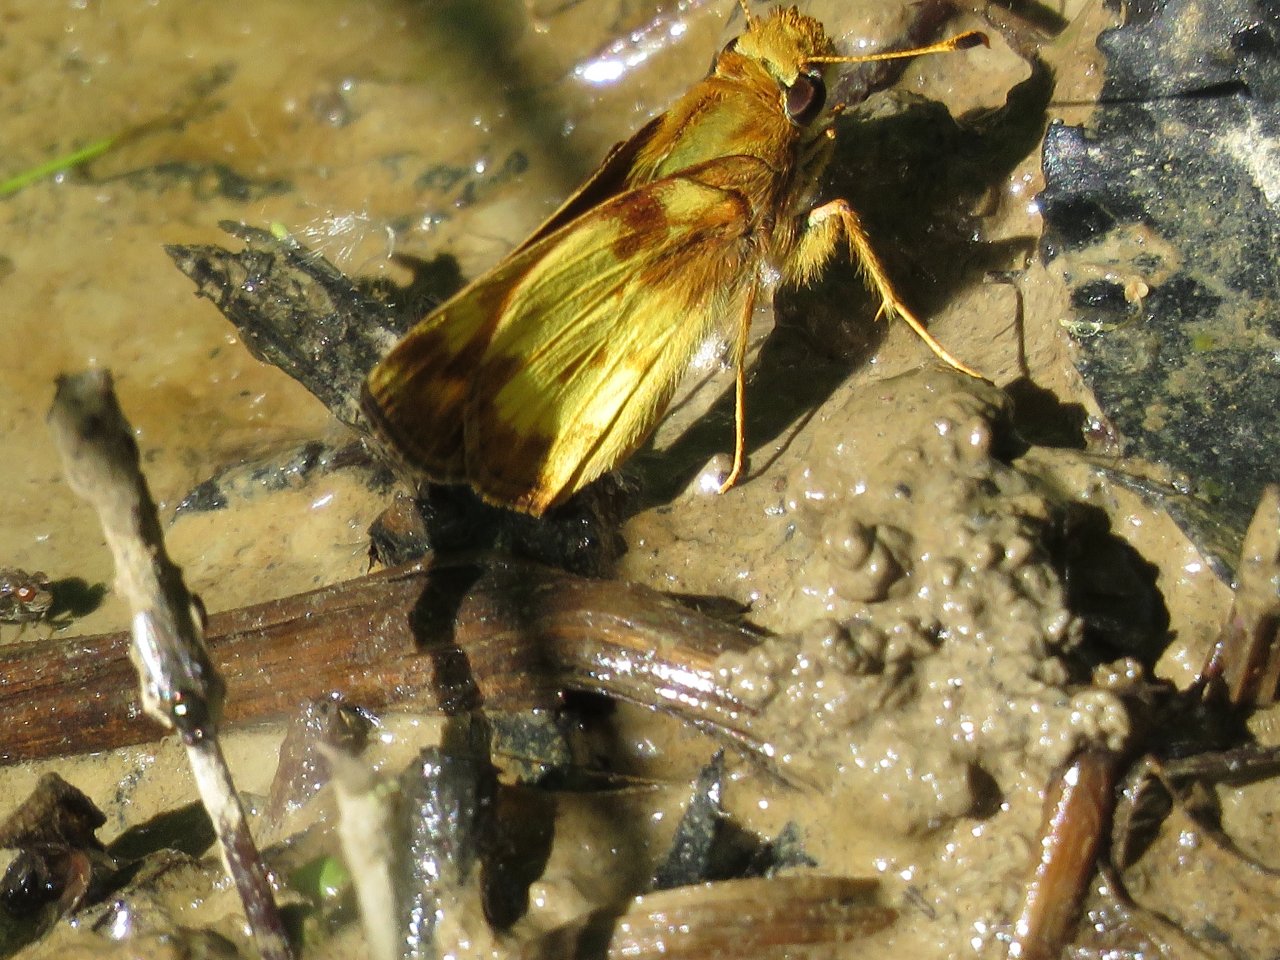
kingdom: Animalia
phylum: Arthropoda
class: Insecta
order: Lepidoptera
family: Hesperiidae
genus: Lon
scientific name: Lon zabulon
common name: Zabulon Skipper
